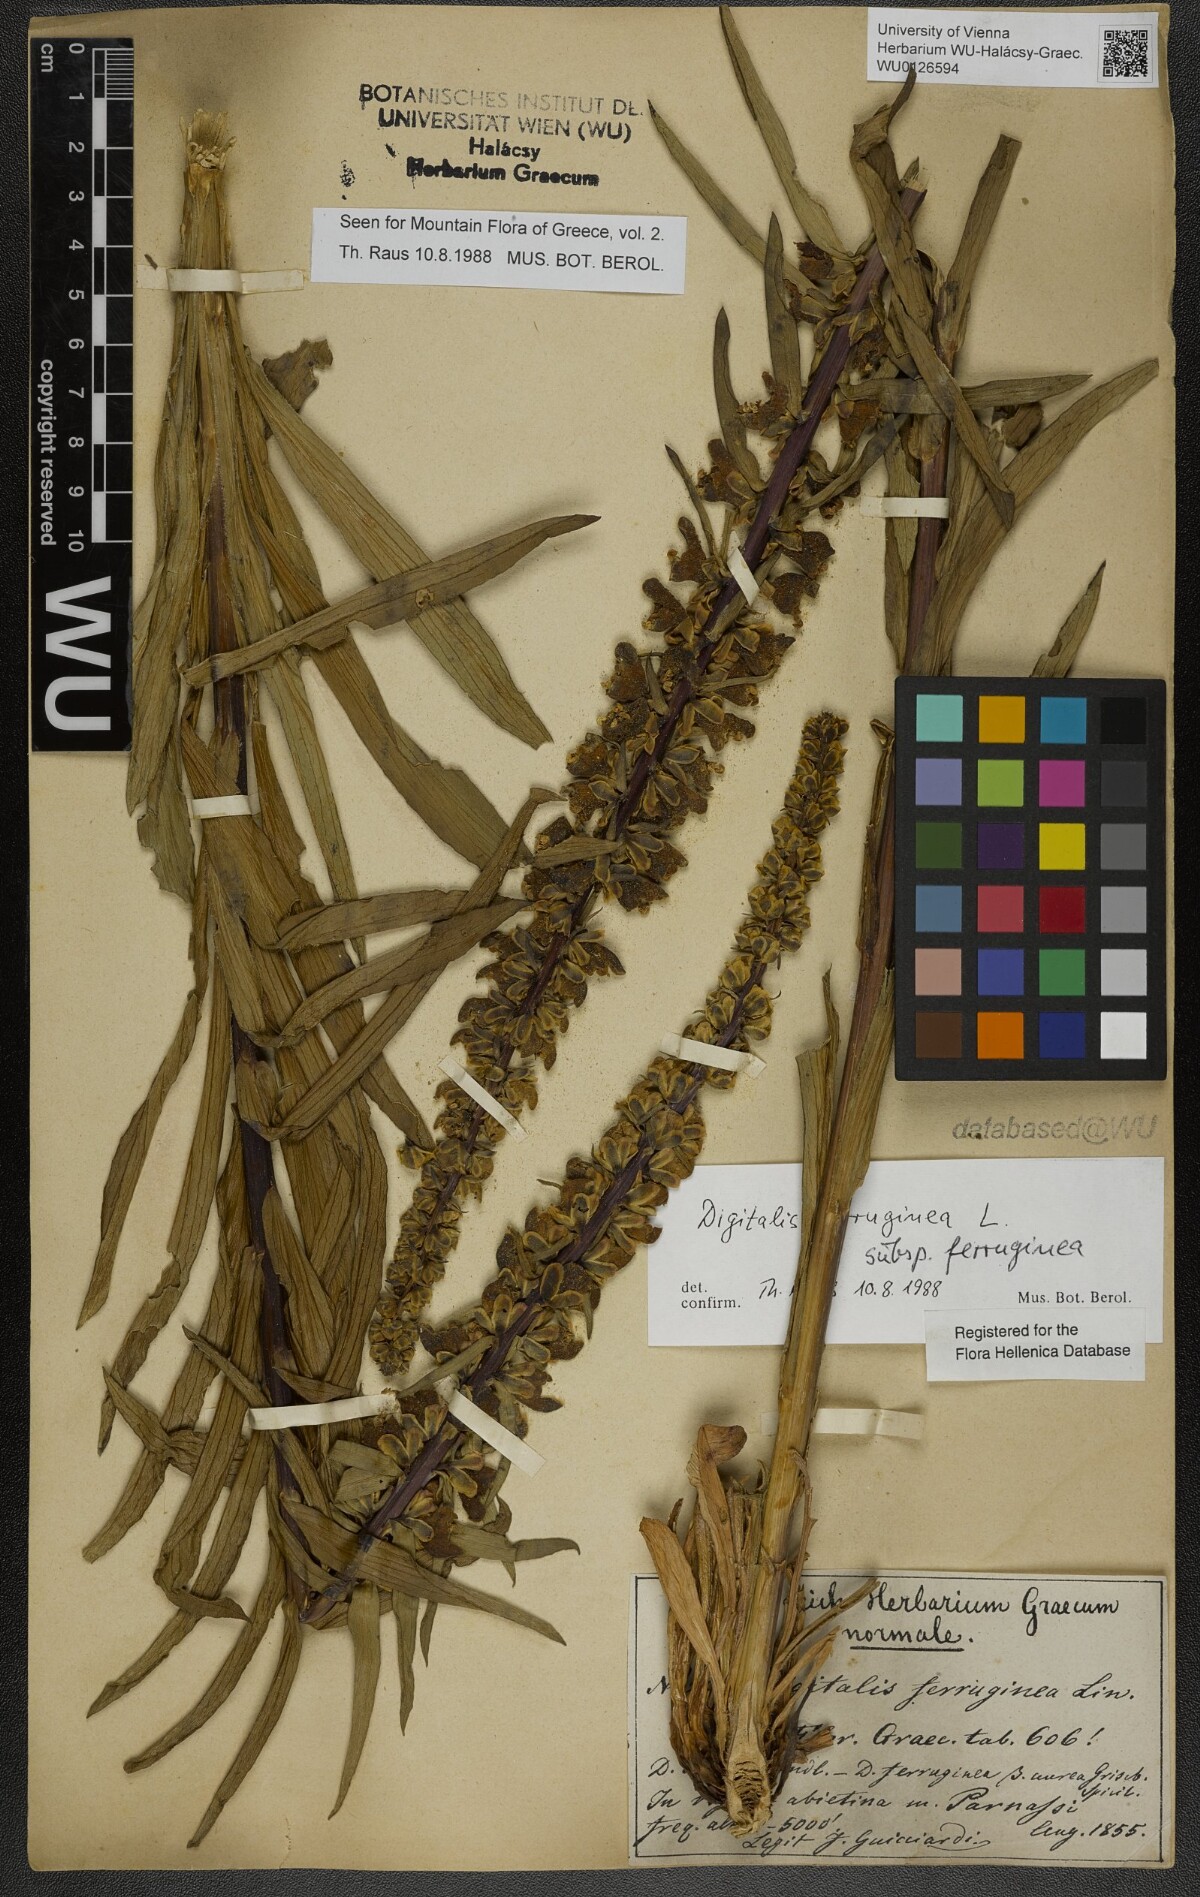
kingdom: Plantae
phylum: Tracheophyta
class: Magnoliopsida
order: Lamiales
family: Plantaginaceae
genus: Digitalis
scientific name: Digitalis ferruginea
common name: Rusty foxglove
